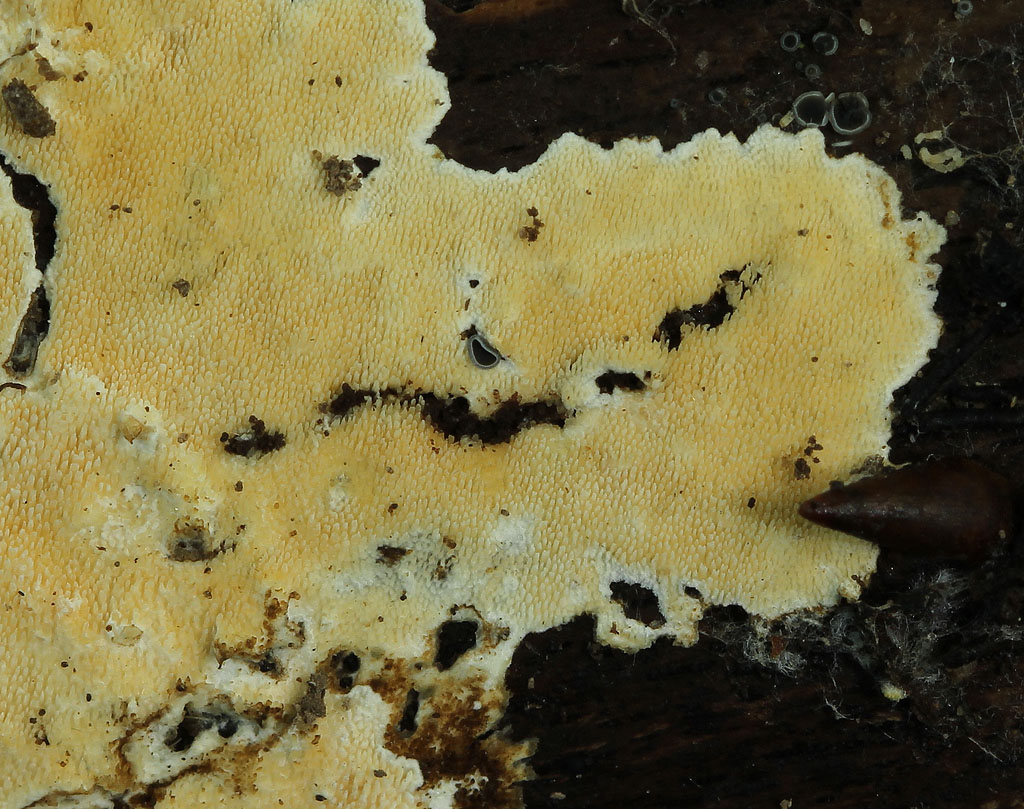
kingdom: Fungi
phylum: Basidiomycota
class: Agaricomycetes
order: Polyporales
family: Steccherinaceae
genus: Steccherinum
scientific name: Steccherinum ochraceum
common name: almindelig skønpig
